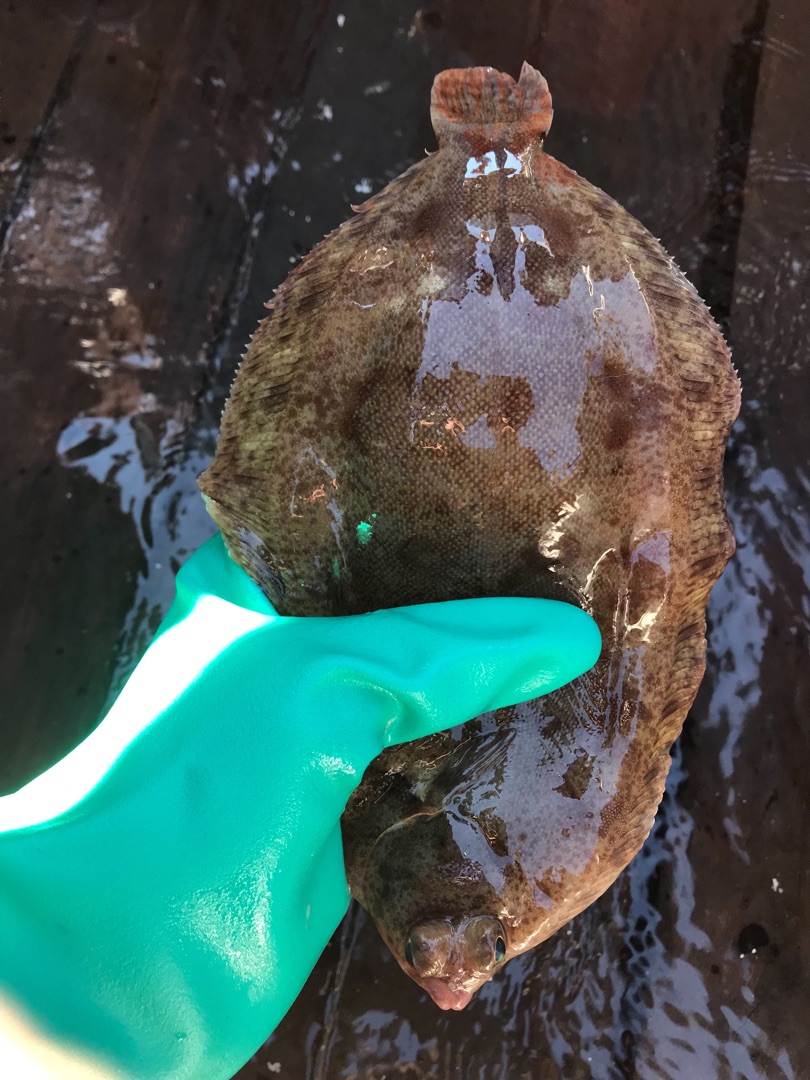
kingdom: Animalia
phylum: Chordata
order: Pleuronectiformes
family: Pleuronectidae
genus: Microstomus
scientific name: Microstomus kitt
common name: Rødtunge
